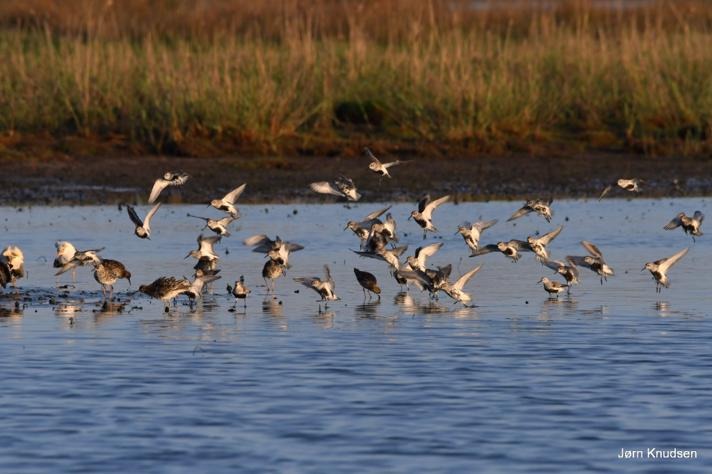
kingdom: Animalia
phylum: Chordata
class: Aves
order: Charadriiformes
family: Scolopacidae
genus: Calidris
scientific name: Calidris alpina
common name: Almindelig ryle
